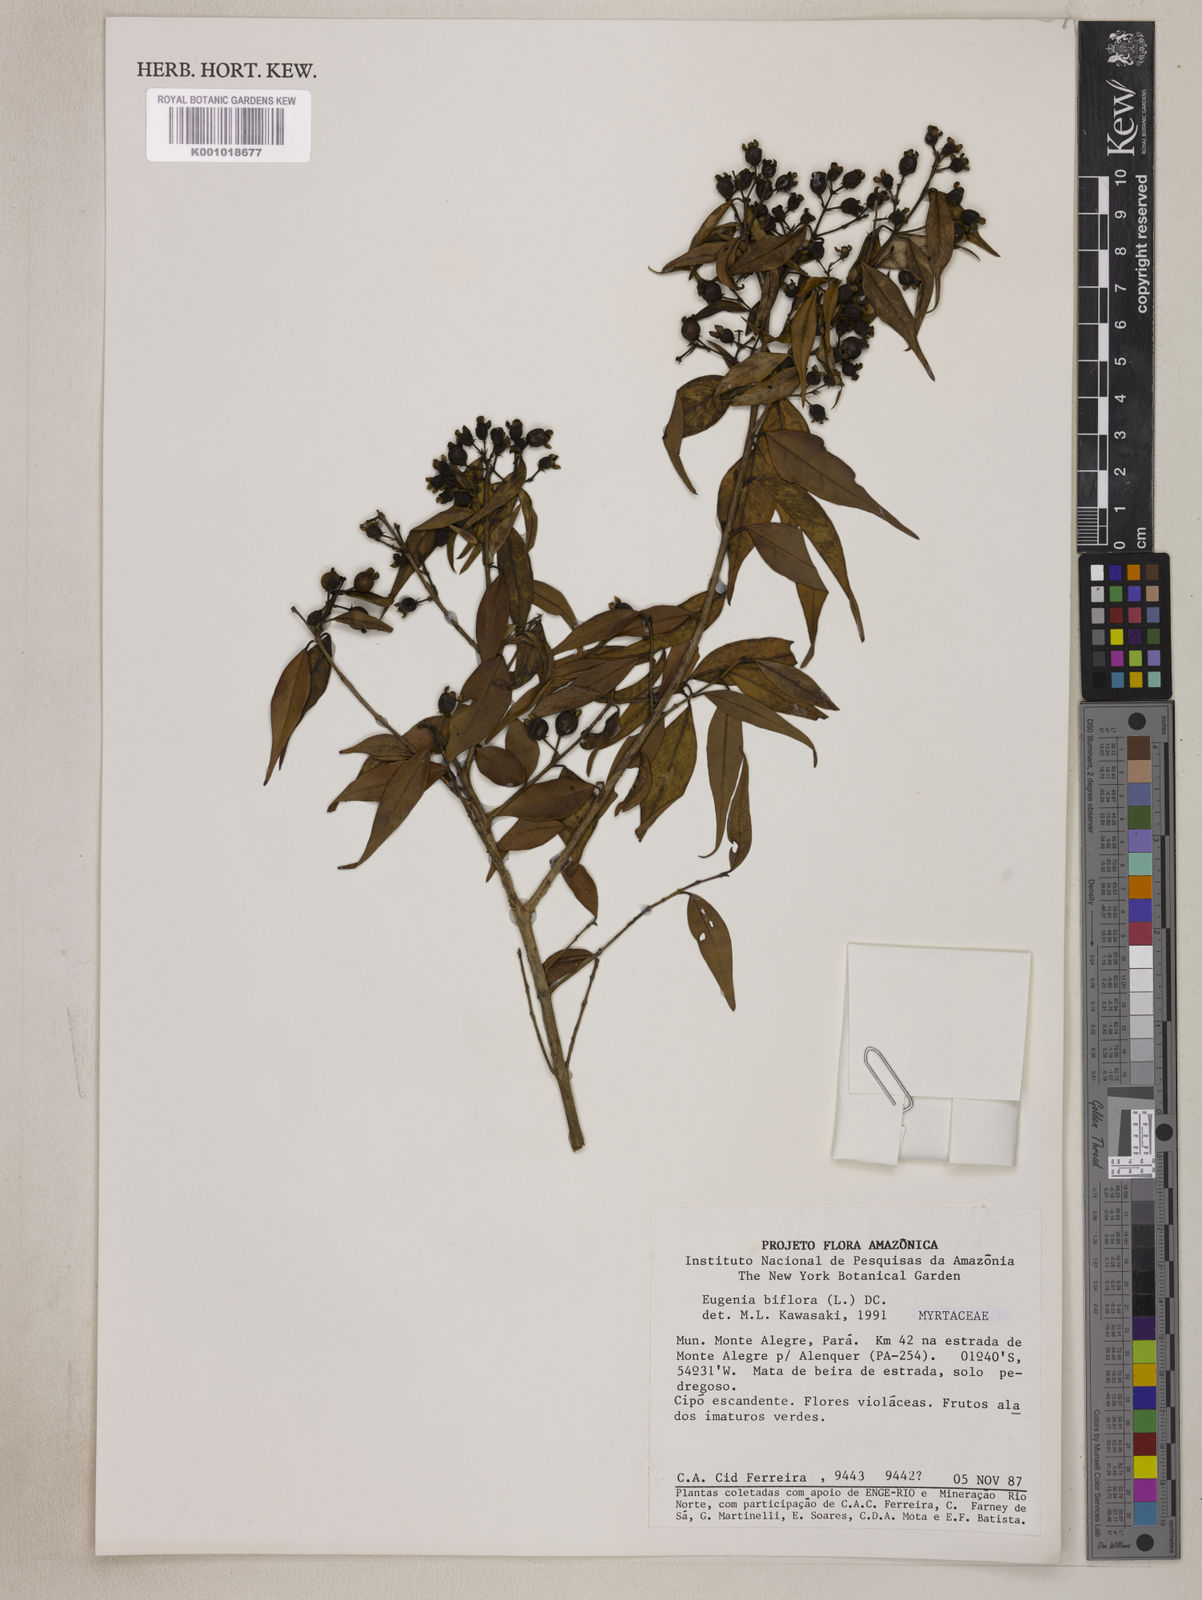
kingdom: Plantae
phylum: Tracheophyta
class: Magnoliopsida
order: Myrtales
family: Myrtaceae
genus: Eugenia
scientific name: Eugenia biflora
